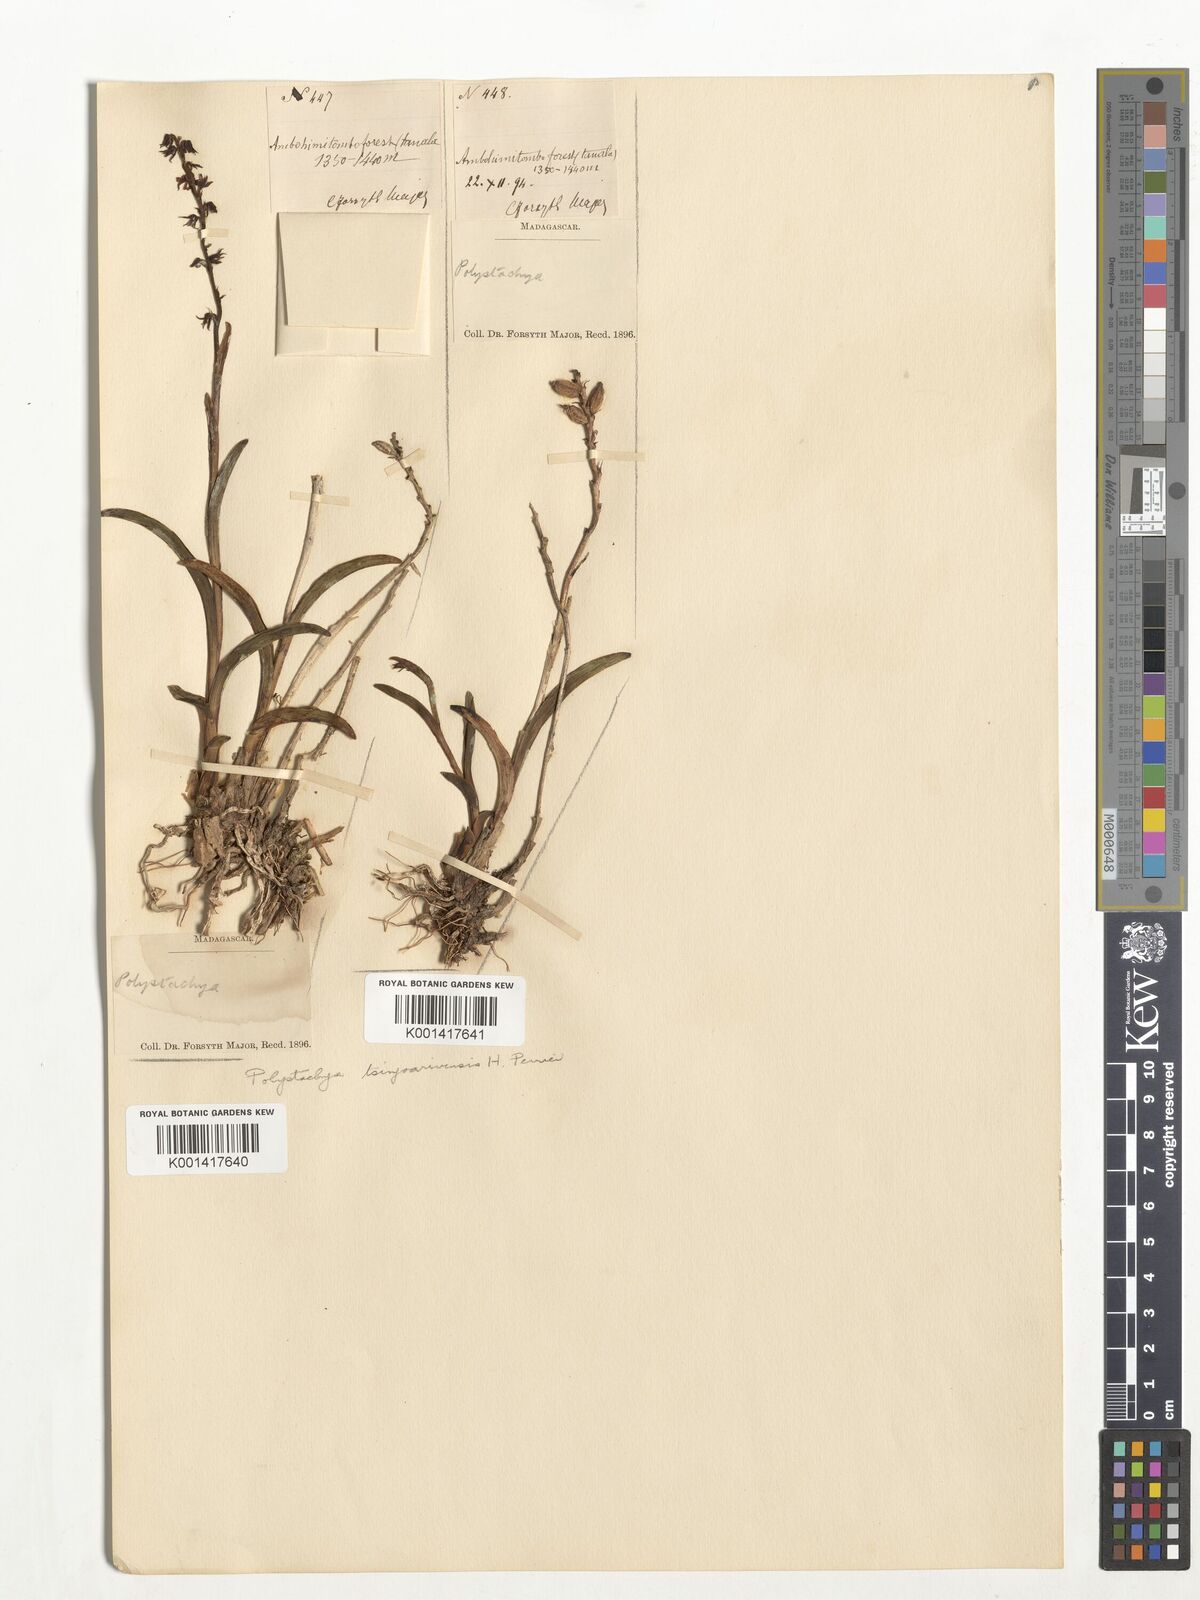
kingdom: Plantae
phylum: Tracheophyta
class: Liliopsida
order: Asparagales
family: Orchidaceae
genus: Polystachya
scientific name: Polystachya tsinjoarivensis
